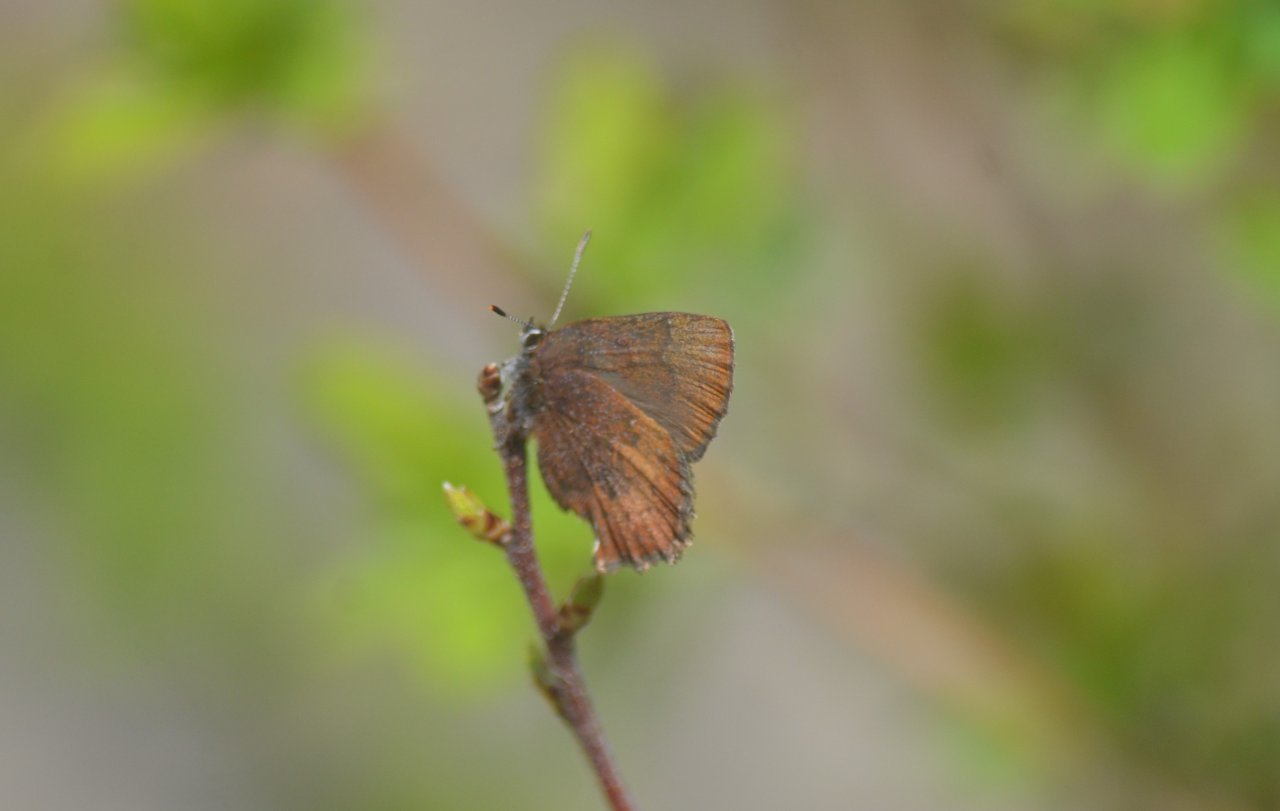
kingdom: Animalia
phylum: Arthropoda
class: Insecta
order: Lepidoptera
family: Lycaenidae
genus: Incisalia
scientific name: Incisalia irioides
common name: Brown Elfin
